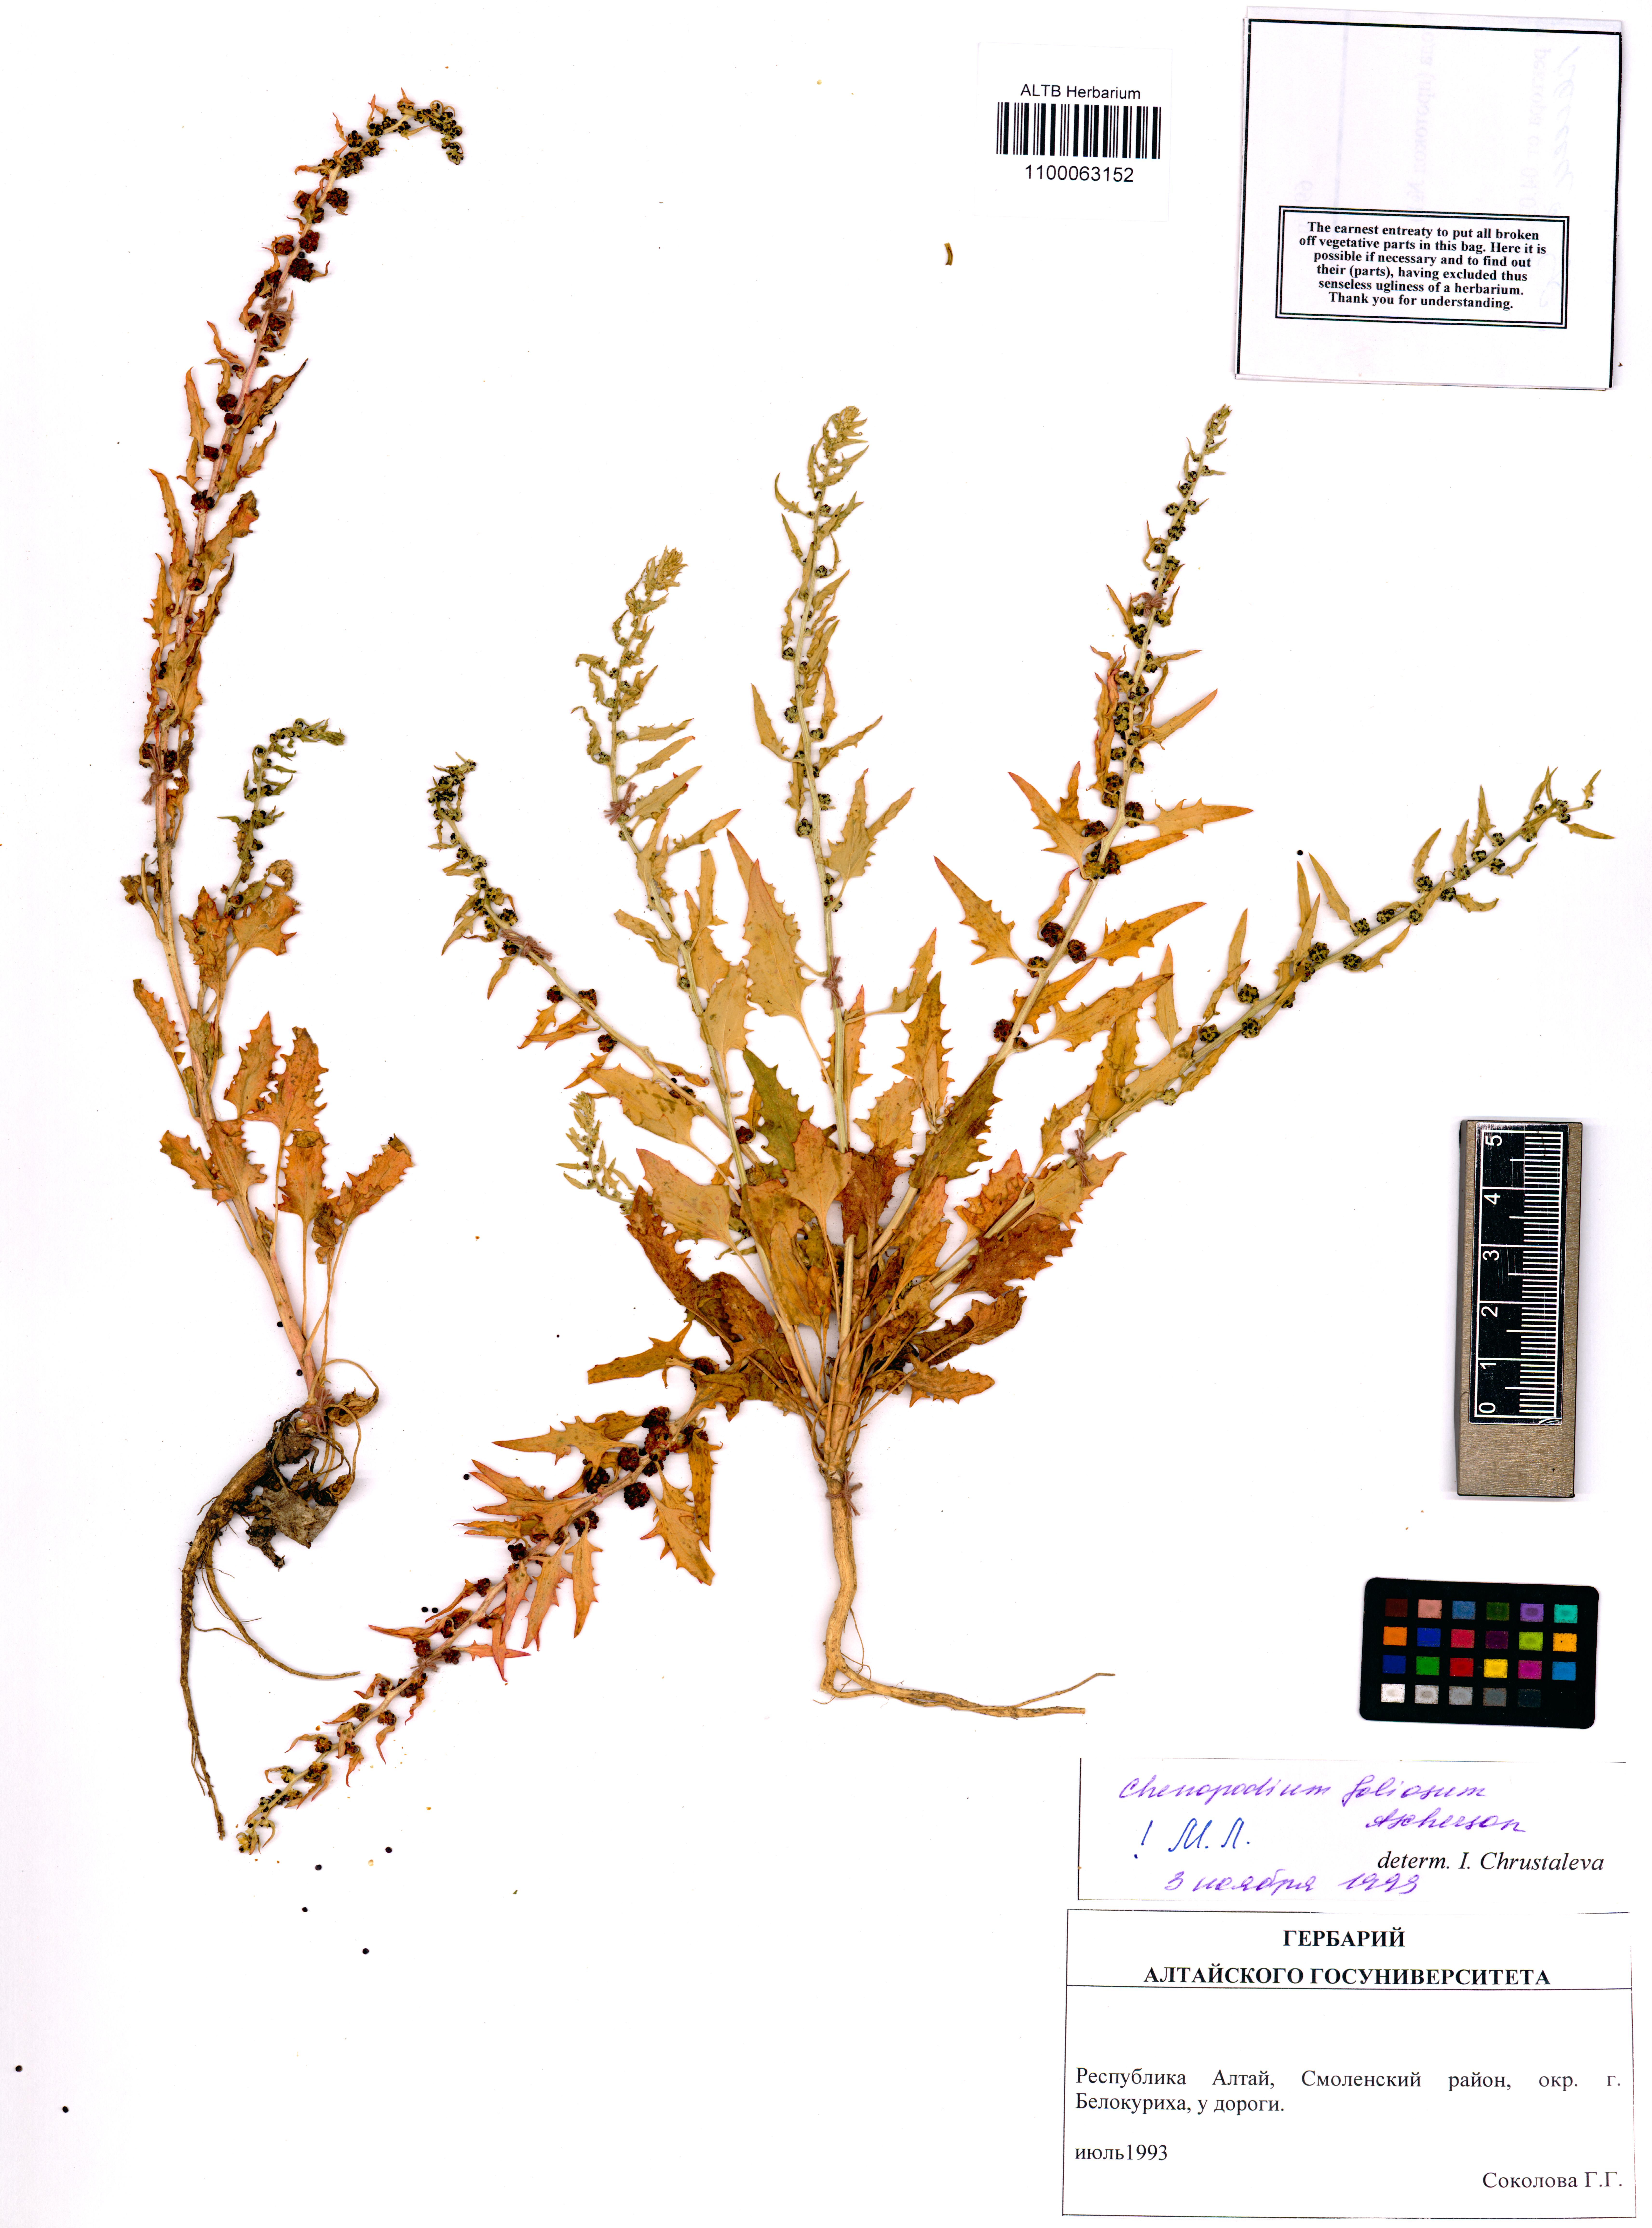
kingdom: Plantae
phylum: Tracheophyta
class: Magnoliopsida
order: Caryophyllales
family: Amaranthaceae
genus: Blitum
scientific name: Blitum virgatum
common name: Strawberry goosefoot
